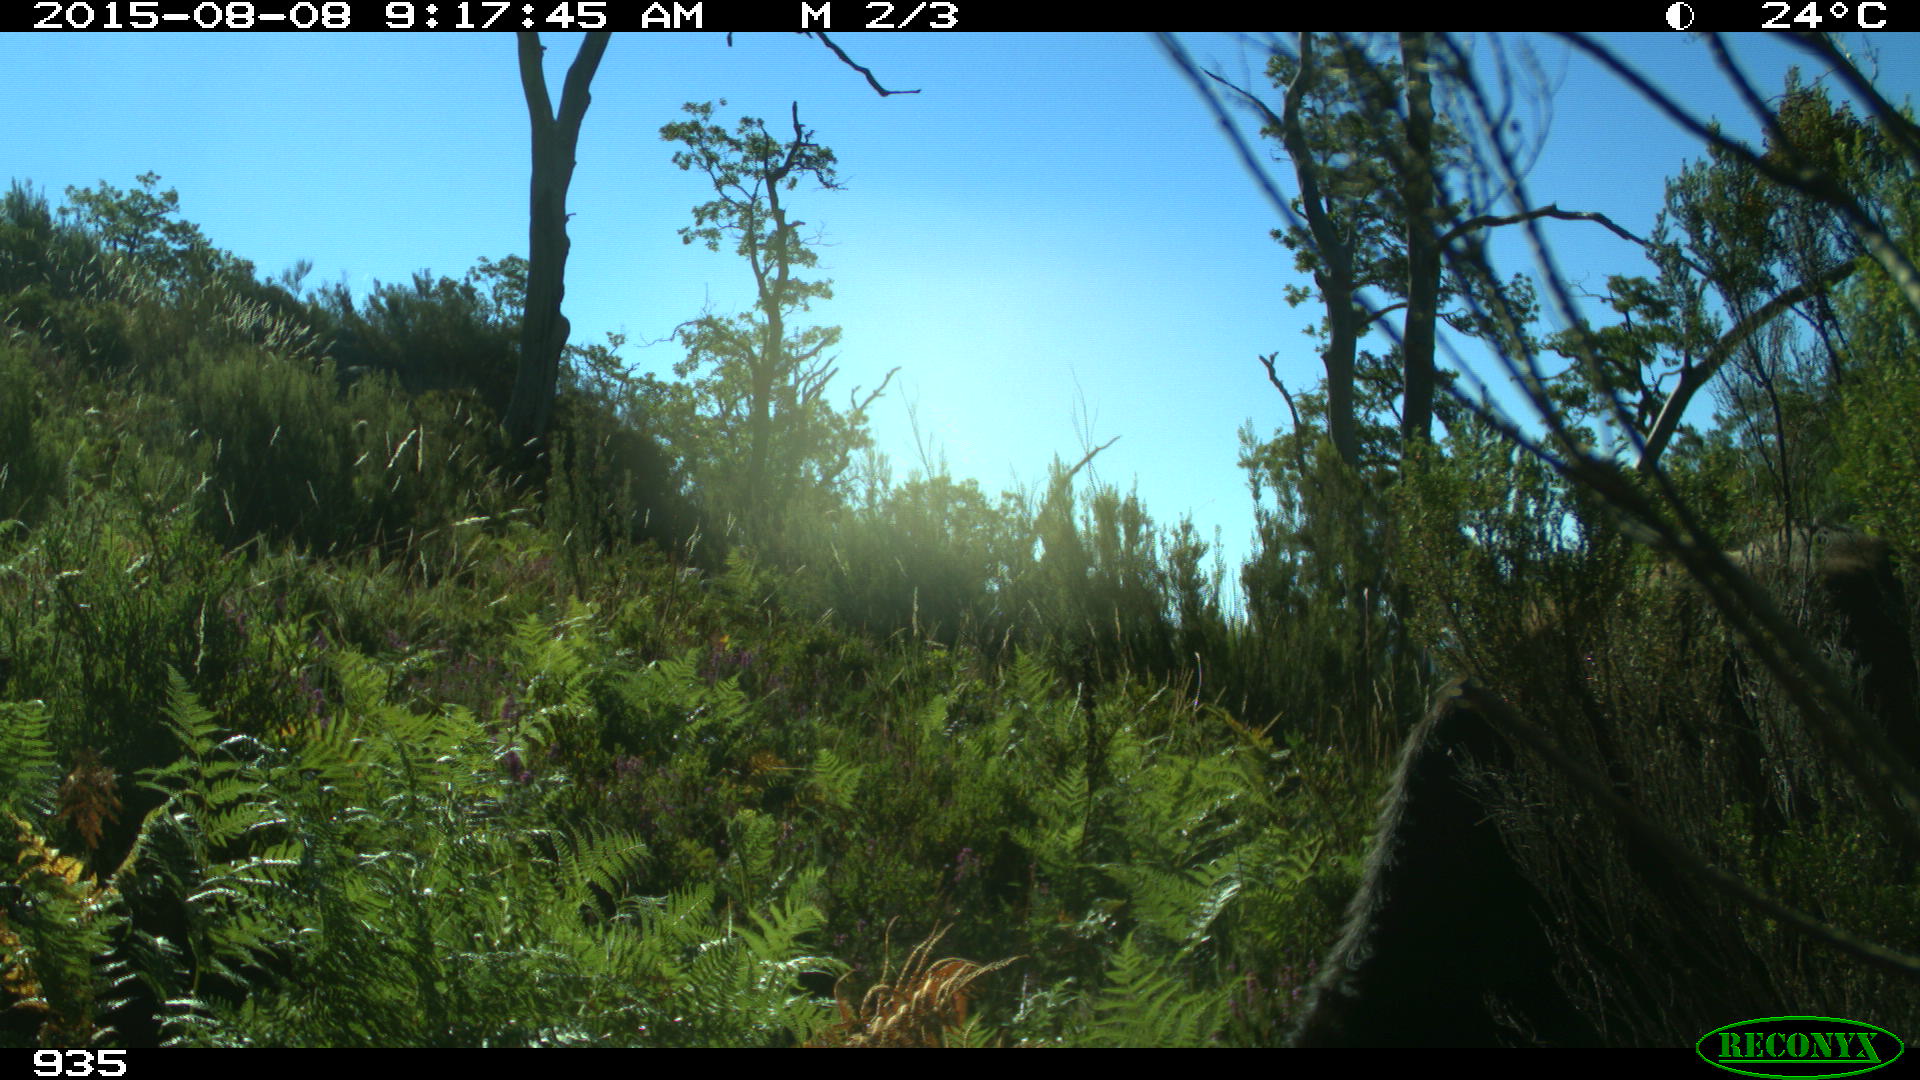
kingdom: Animalia
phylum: Chordata
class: Mammalia
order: Artiodactyla
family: Bovidae
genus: Bos
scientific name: Bos taurus
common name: Domesticated cattle
